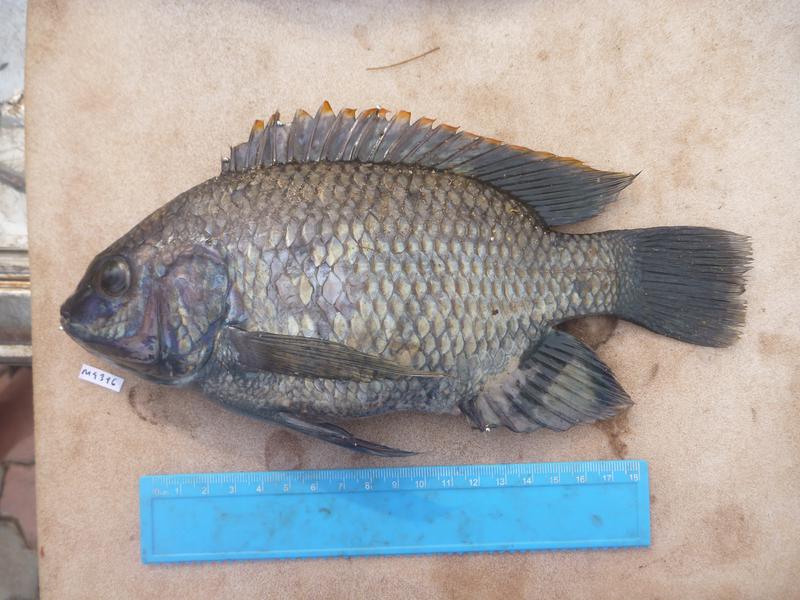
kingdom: Animalia
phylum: Chordata
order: Perciformes
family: Cichlidae
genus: Oreochromis
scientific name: Oreochromis variabilis
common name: Victoria tilapia
